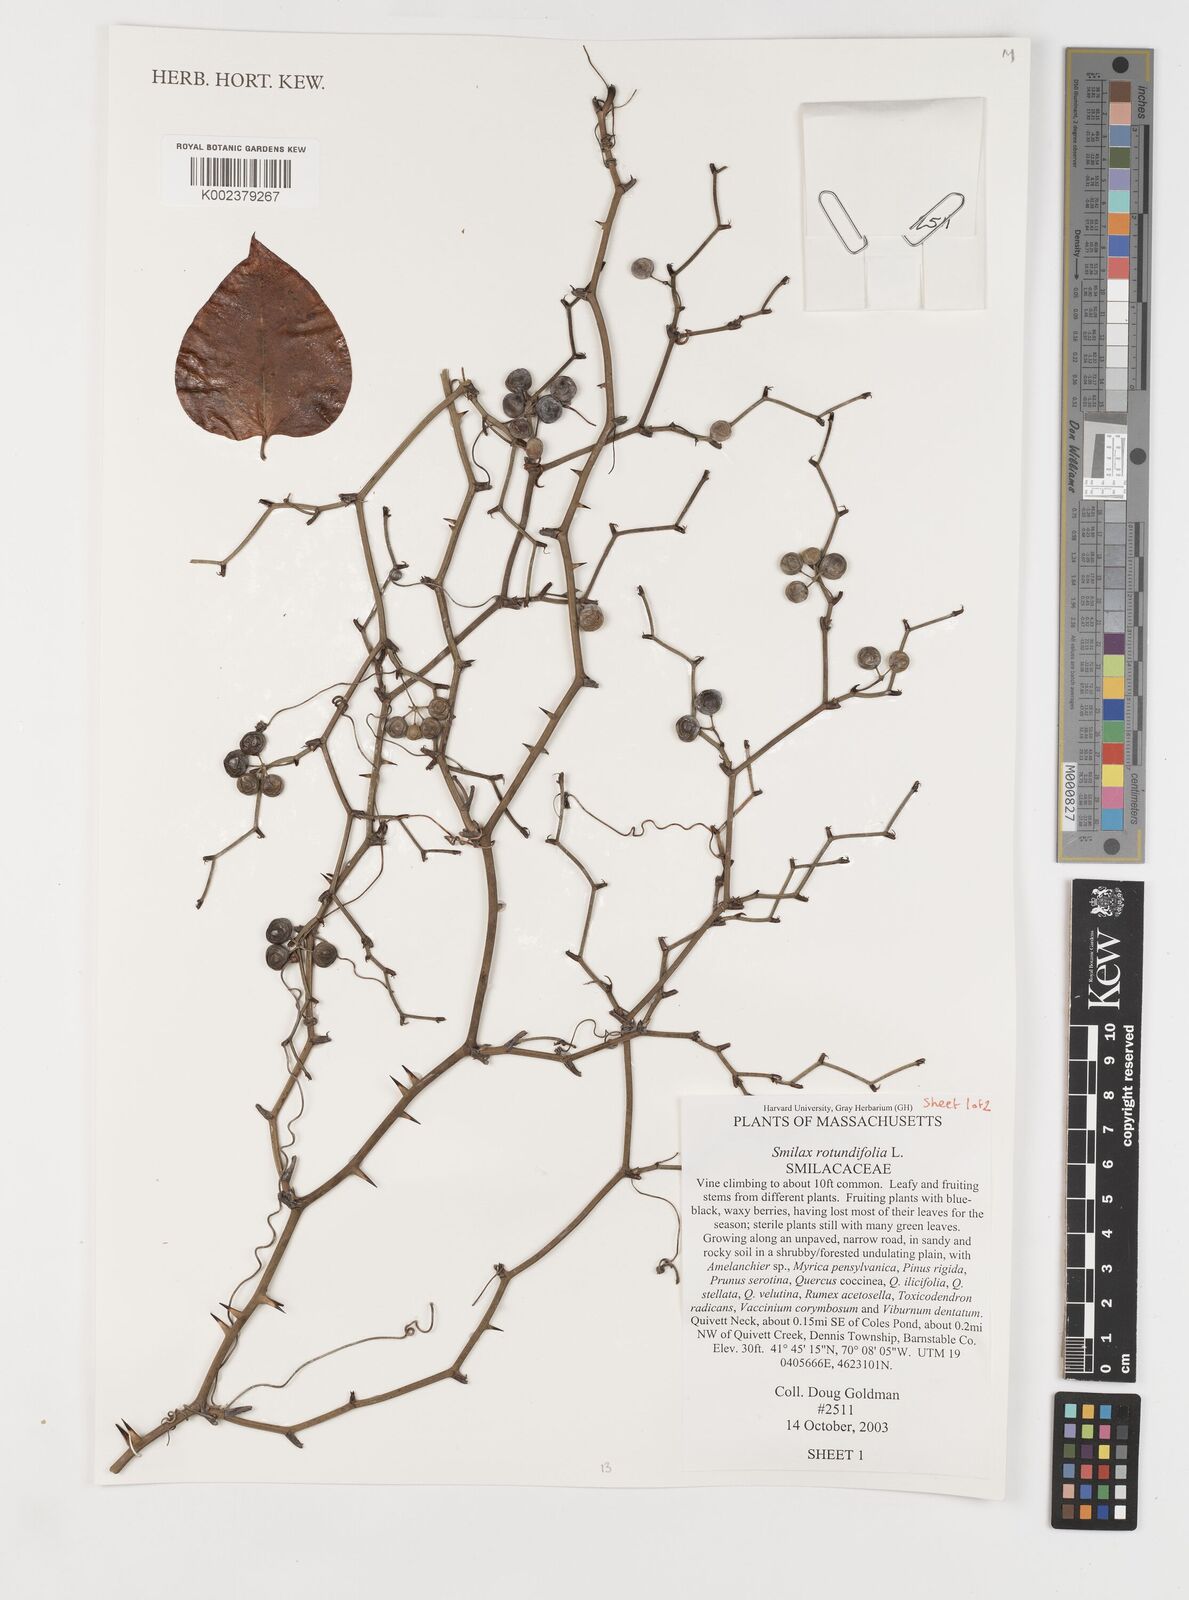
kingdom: Plantae
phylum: Tracheophyta
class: Liliopsida
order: Liliales
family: Smilacaceae
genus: Smilax
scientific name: Smilax rotundifolia
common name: Bullbriar
